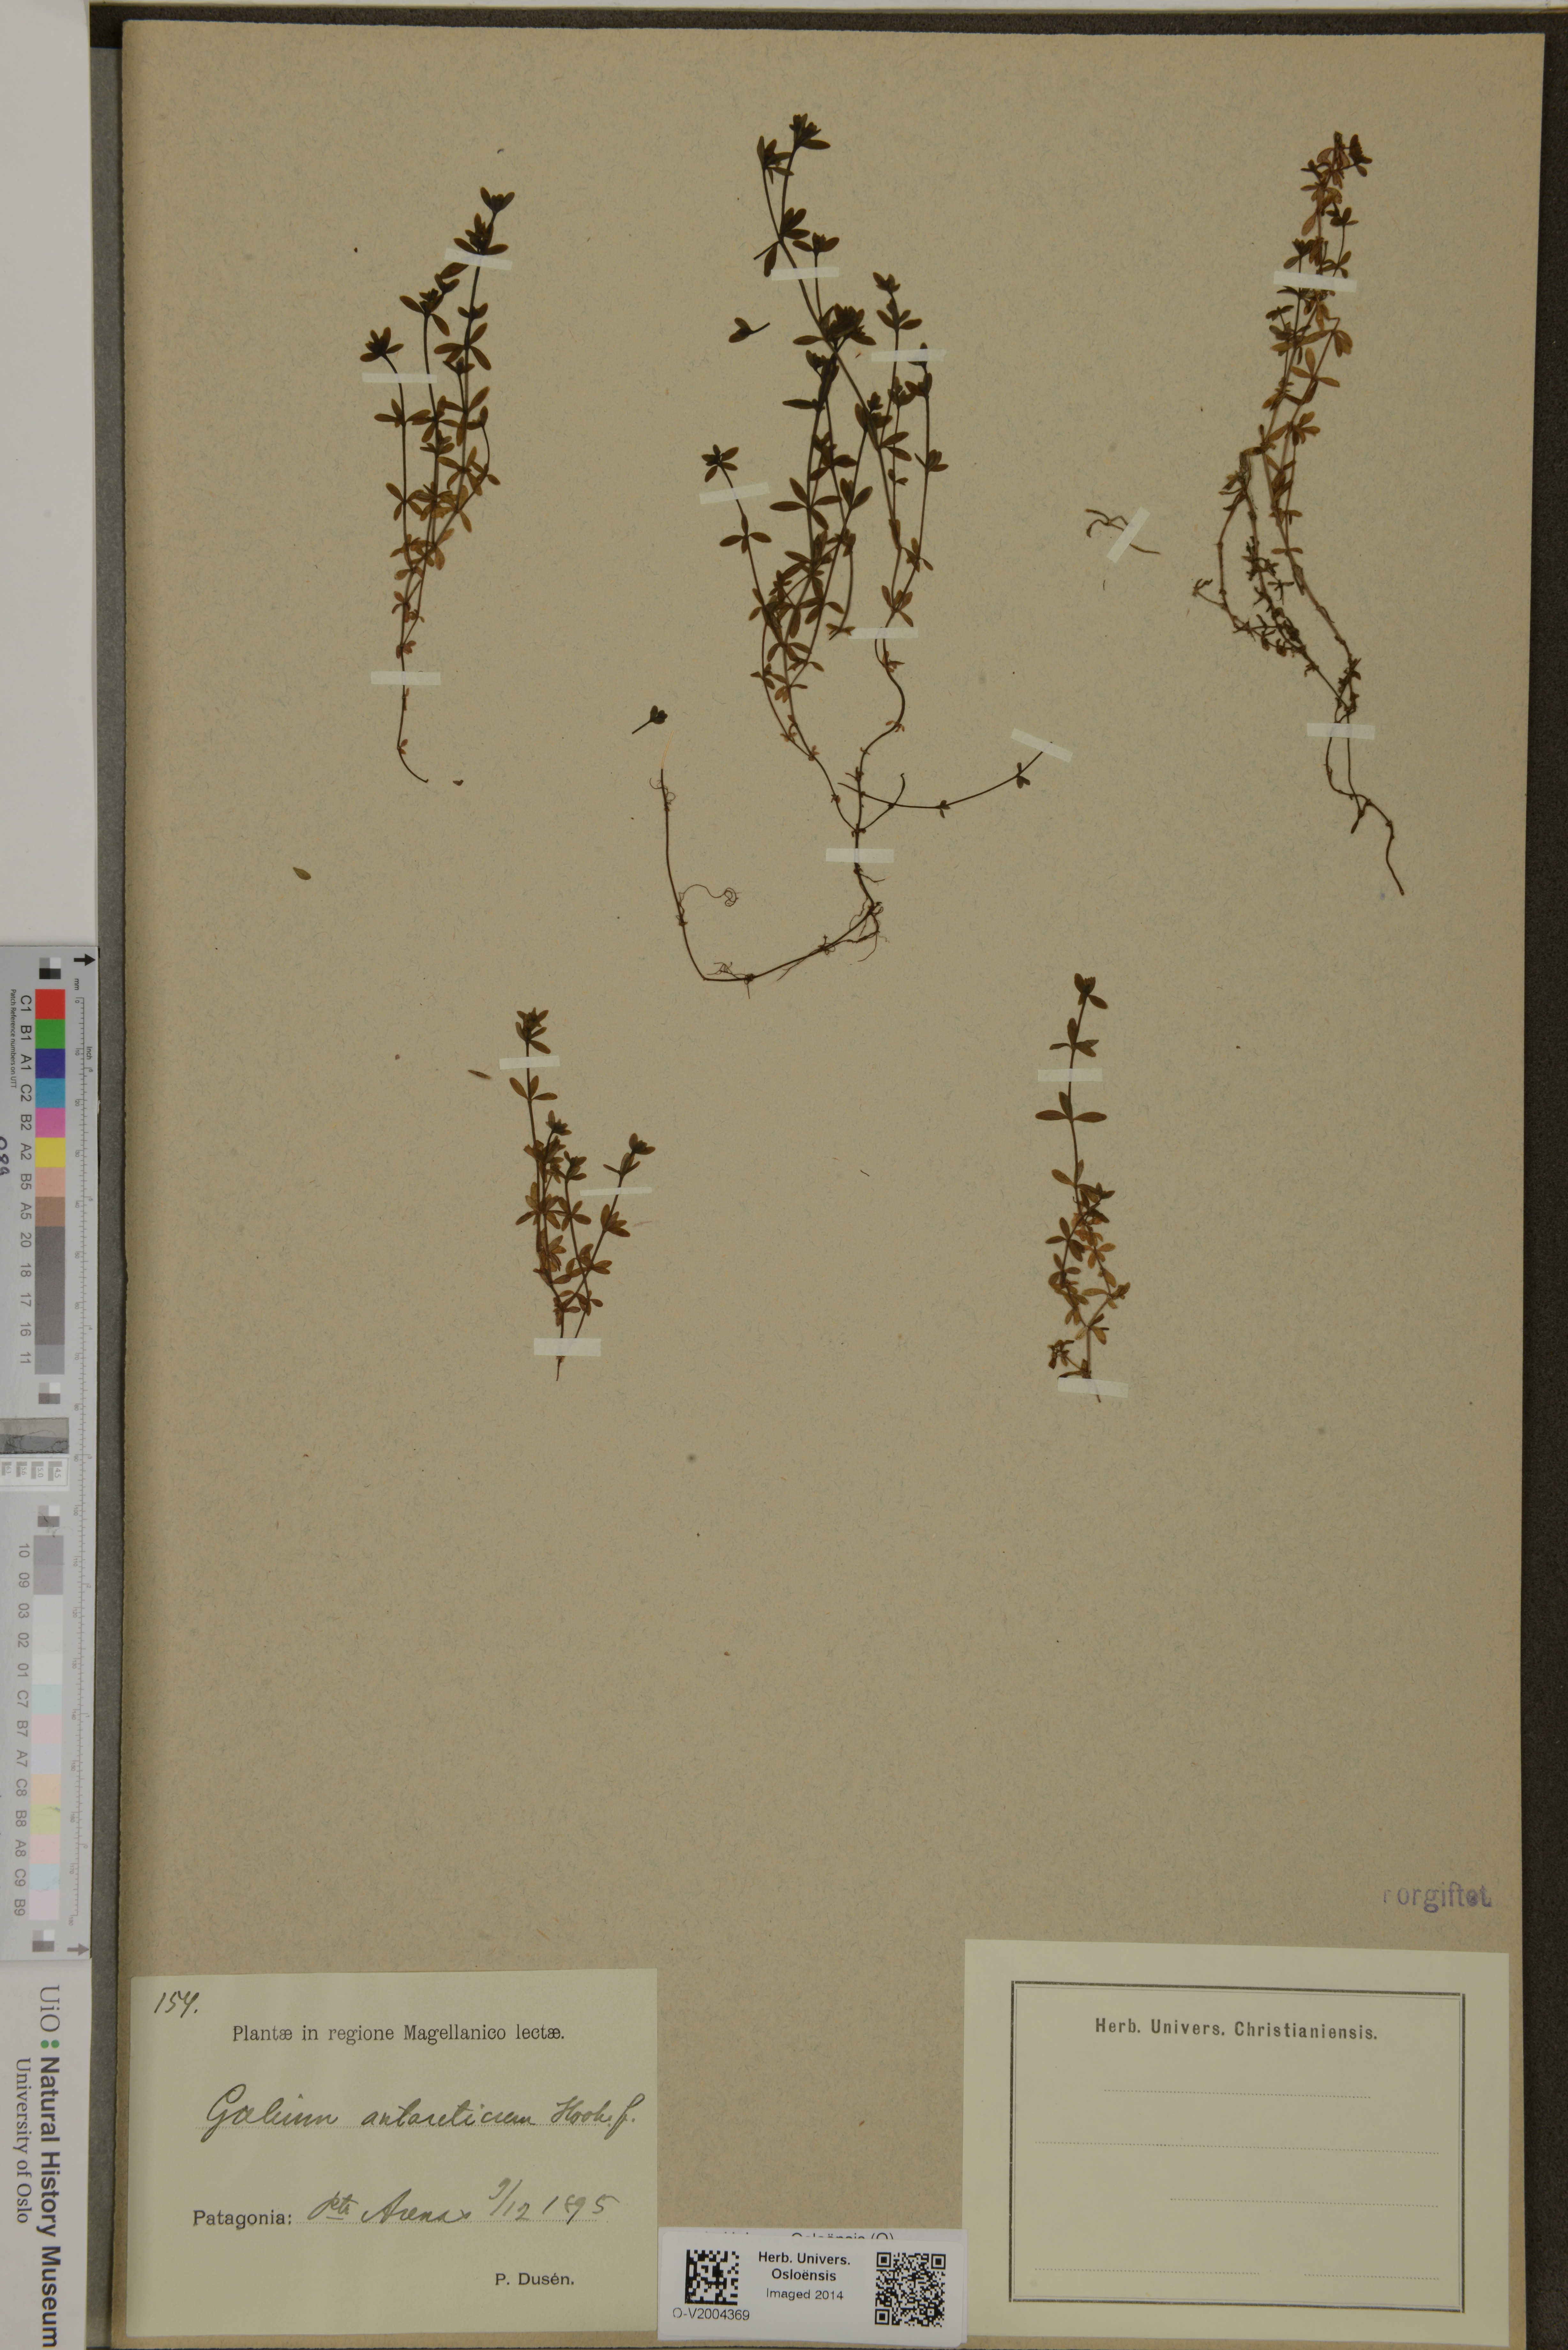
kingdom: Plantae
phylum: Tracheophyta
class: Magnoliopsida
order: Gentianales
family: Rubiaceae
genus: Galium
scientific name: Galium antarcticum
